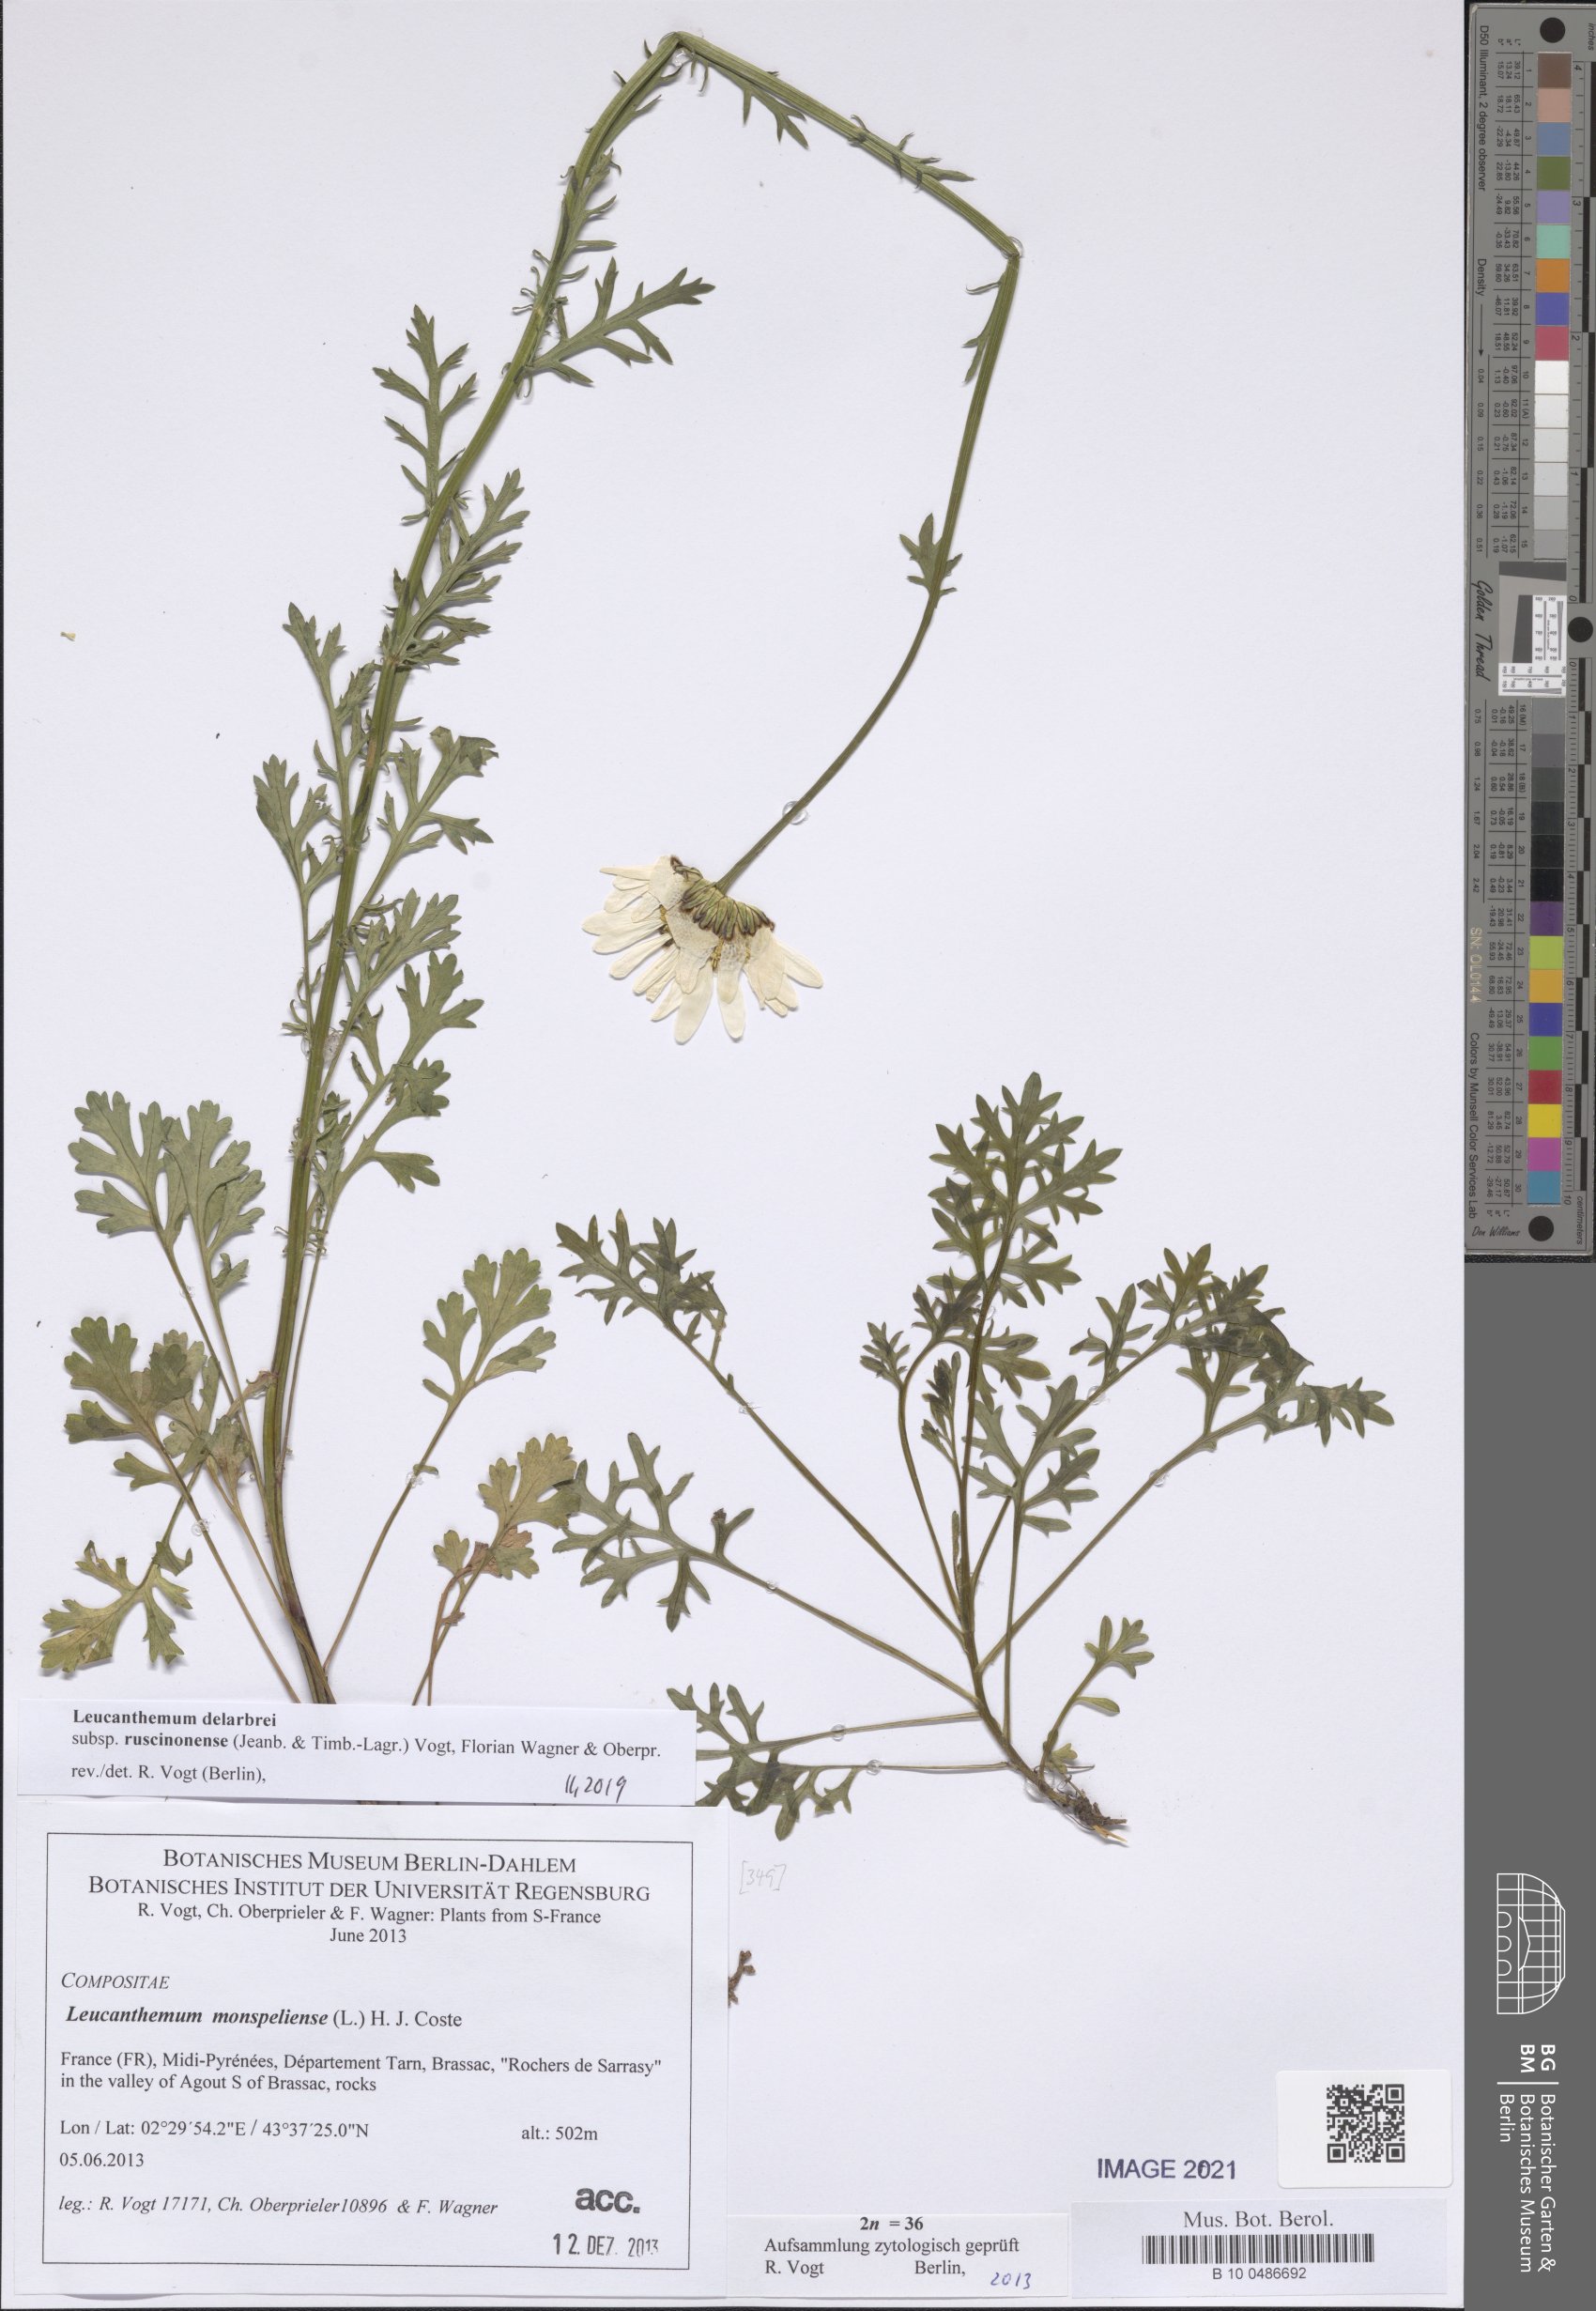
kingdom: Plantae
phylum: Tracheophyta
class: Magnoliopsida
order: Asterales
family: Asteraceae
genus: Leucanthemum
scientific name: Leucanthemum delarbrei
